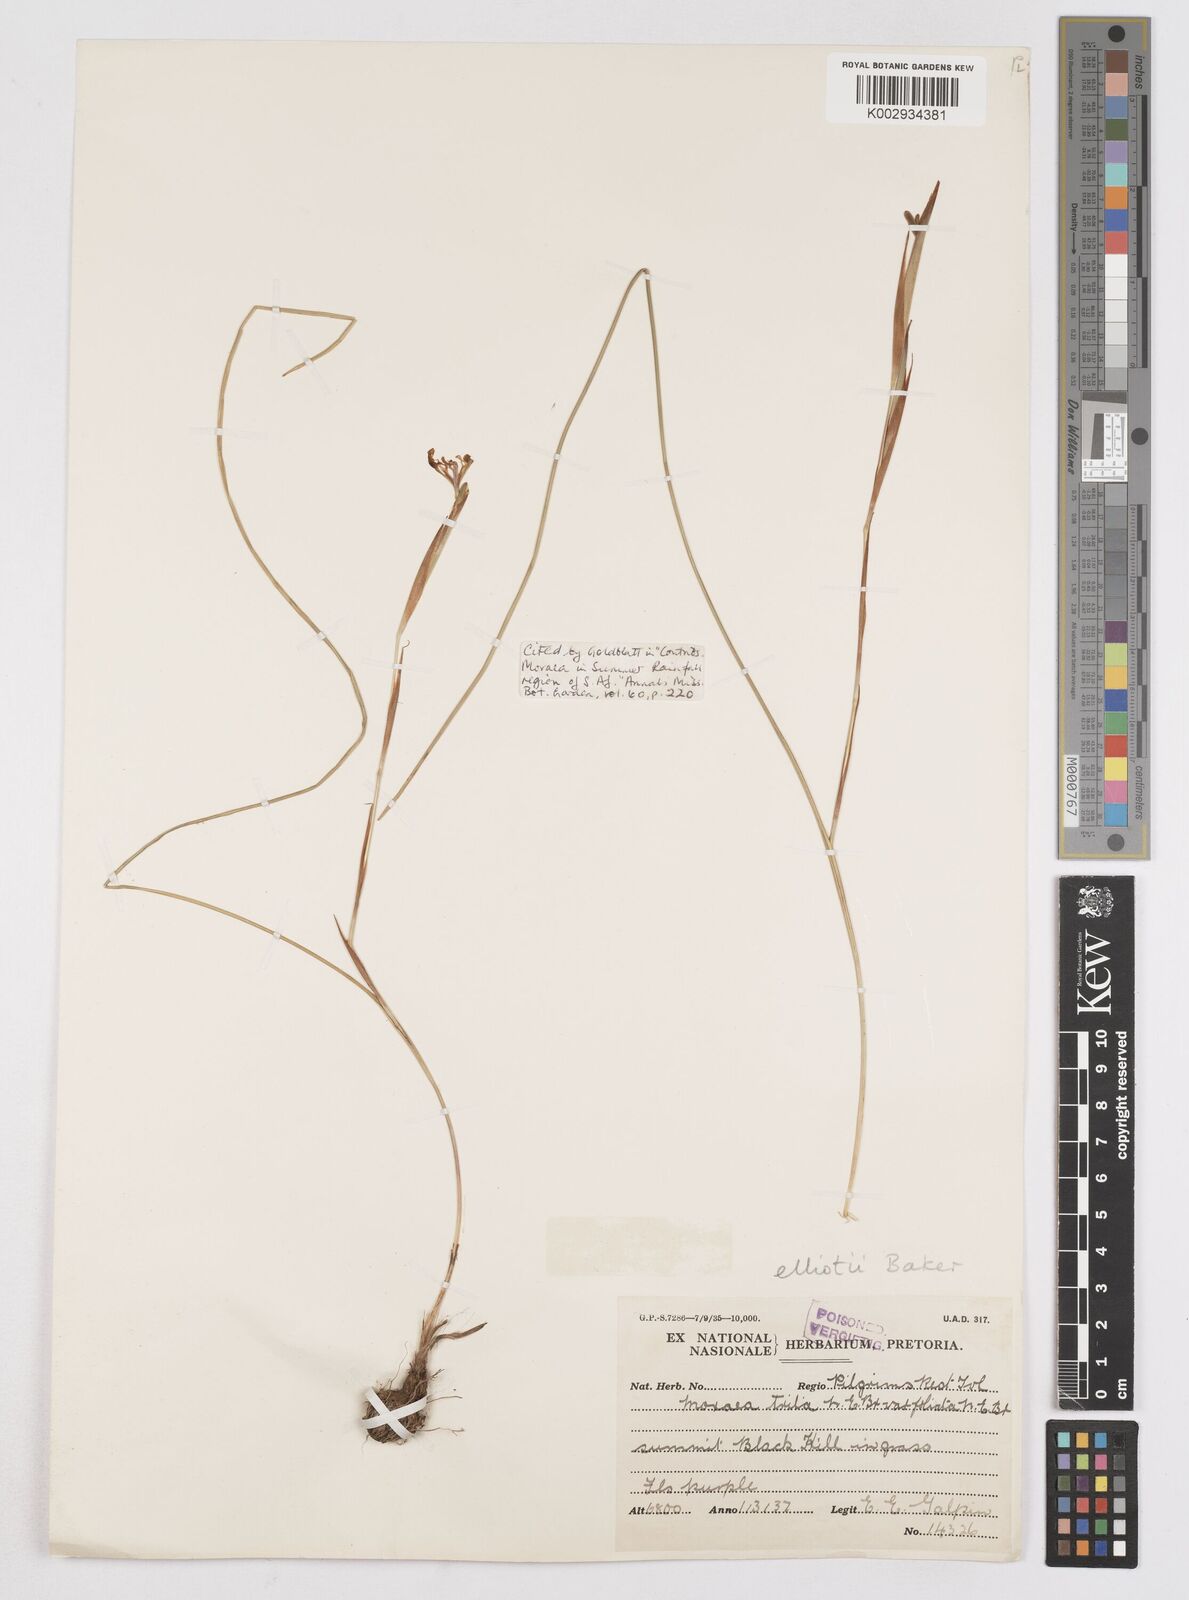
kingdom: Plantae
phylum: Tracheophyta
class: Liliopsida
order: Asparagales
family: Iridaceae
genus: Moraea
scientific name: Moraea elliotii
